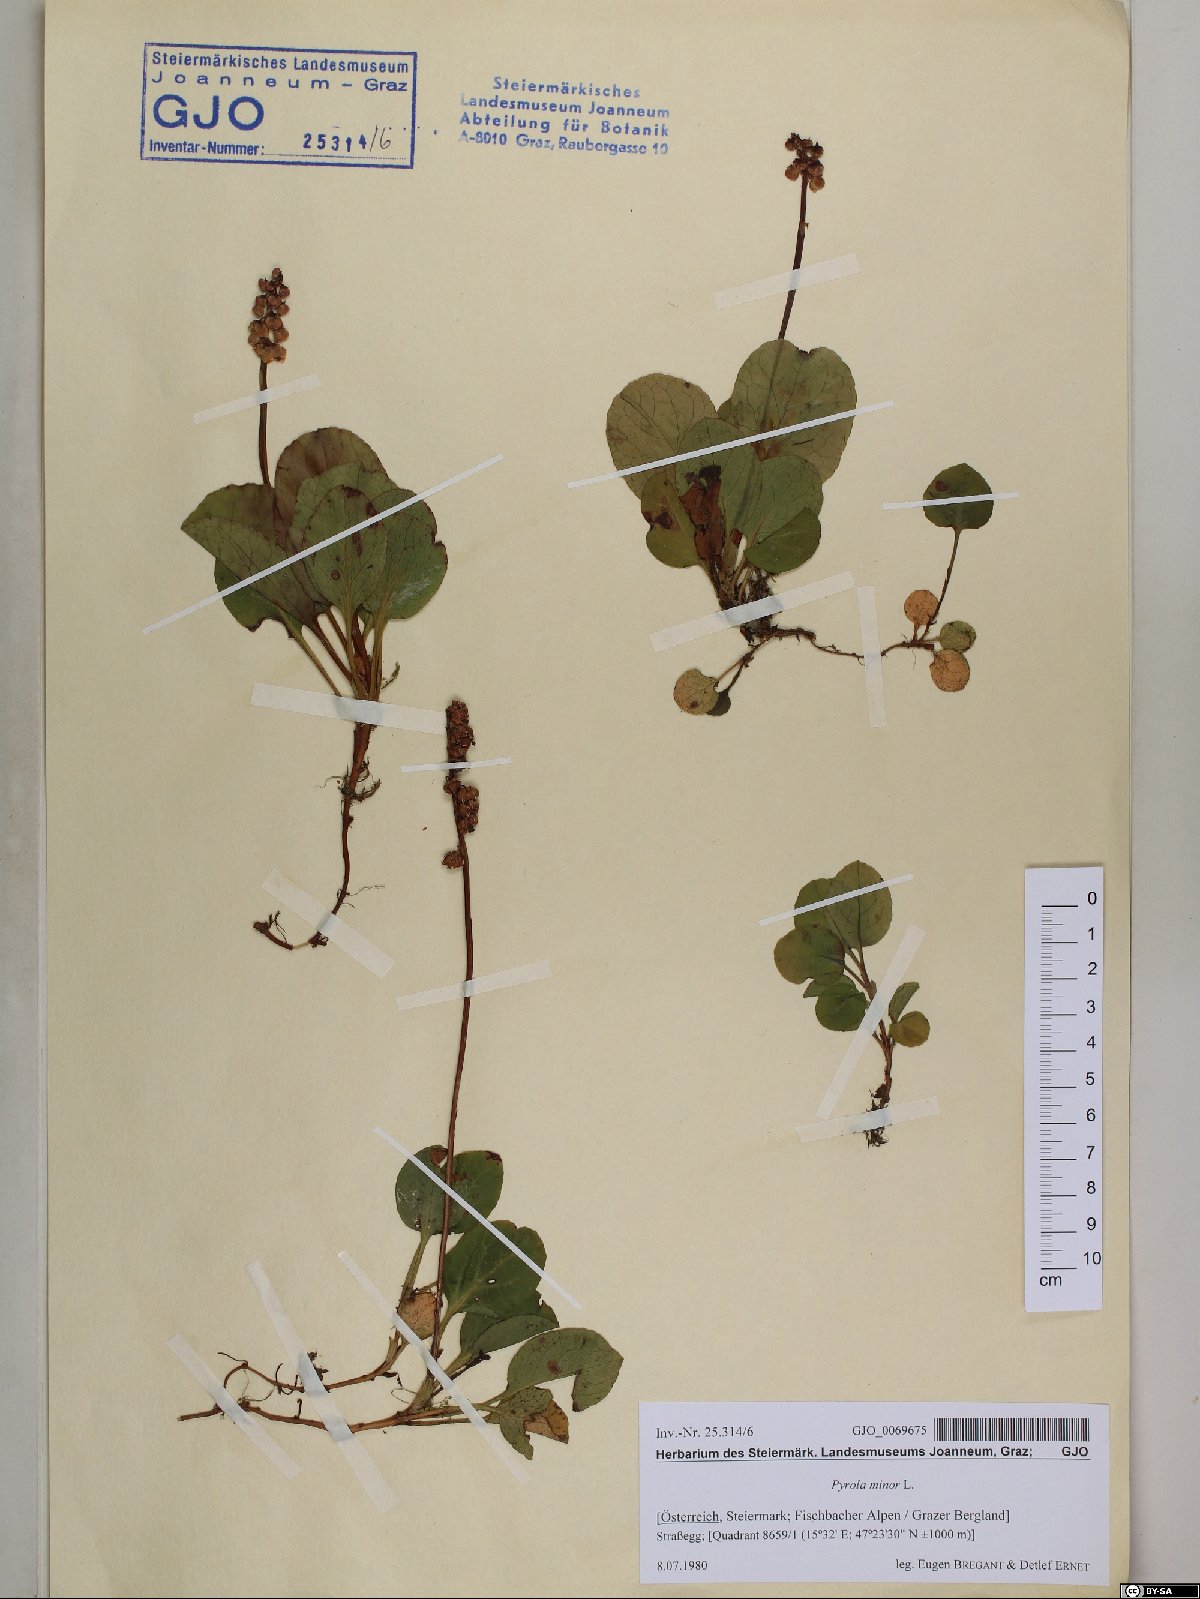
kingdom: Plantae
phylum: Tracheophyta
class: Magnoliopsida
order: Ericales
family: Ericaceae
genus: Pyrola
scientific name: Pyrola minor
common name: Common wintergreen
